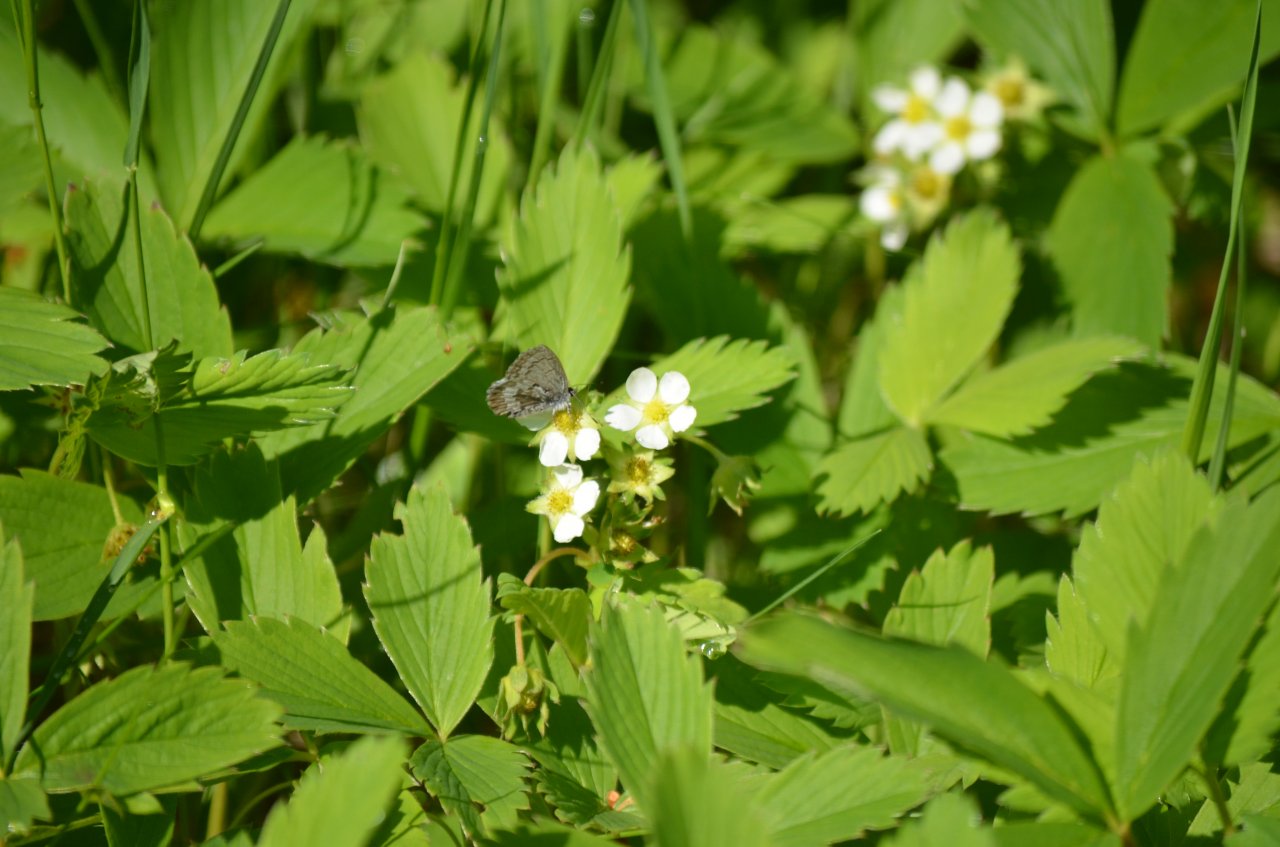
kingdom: Animalia
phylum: Arthropoda
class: Insecta
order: Lepidoptera
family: Lycaenidae
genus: Celastrina
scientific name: Celastrina lucia
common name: Northern Spring Azure
